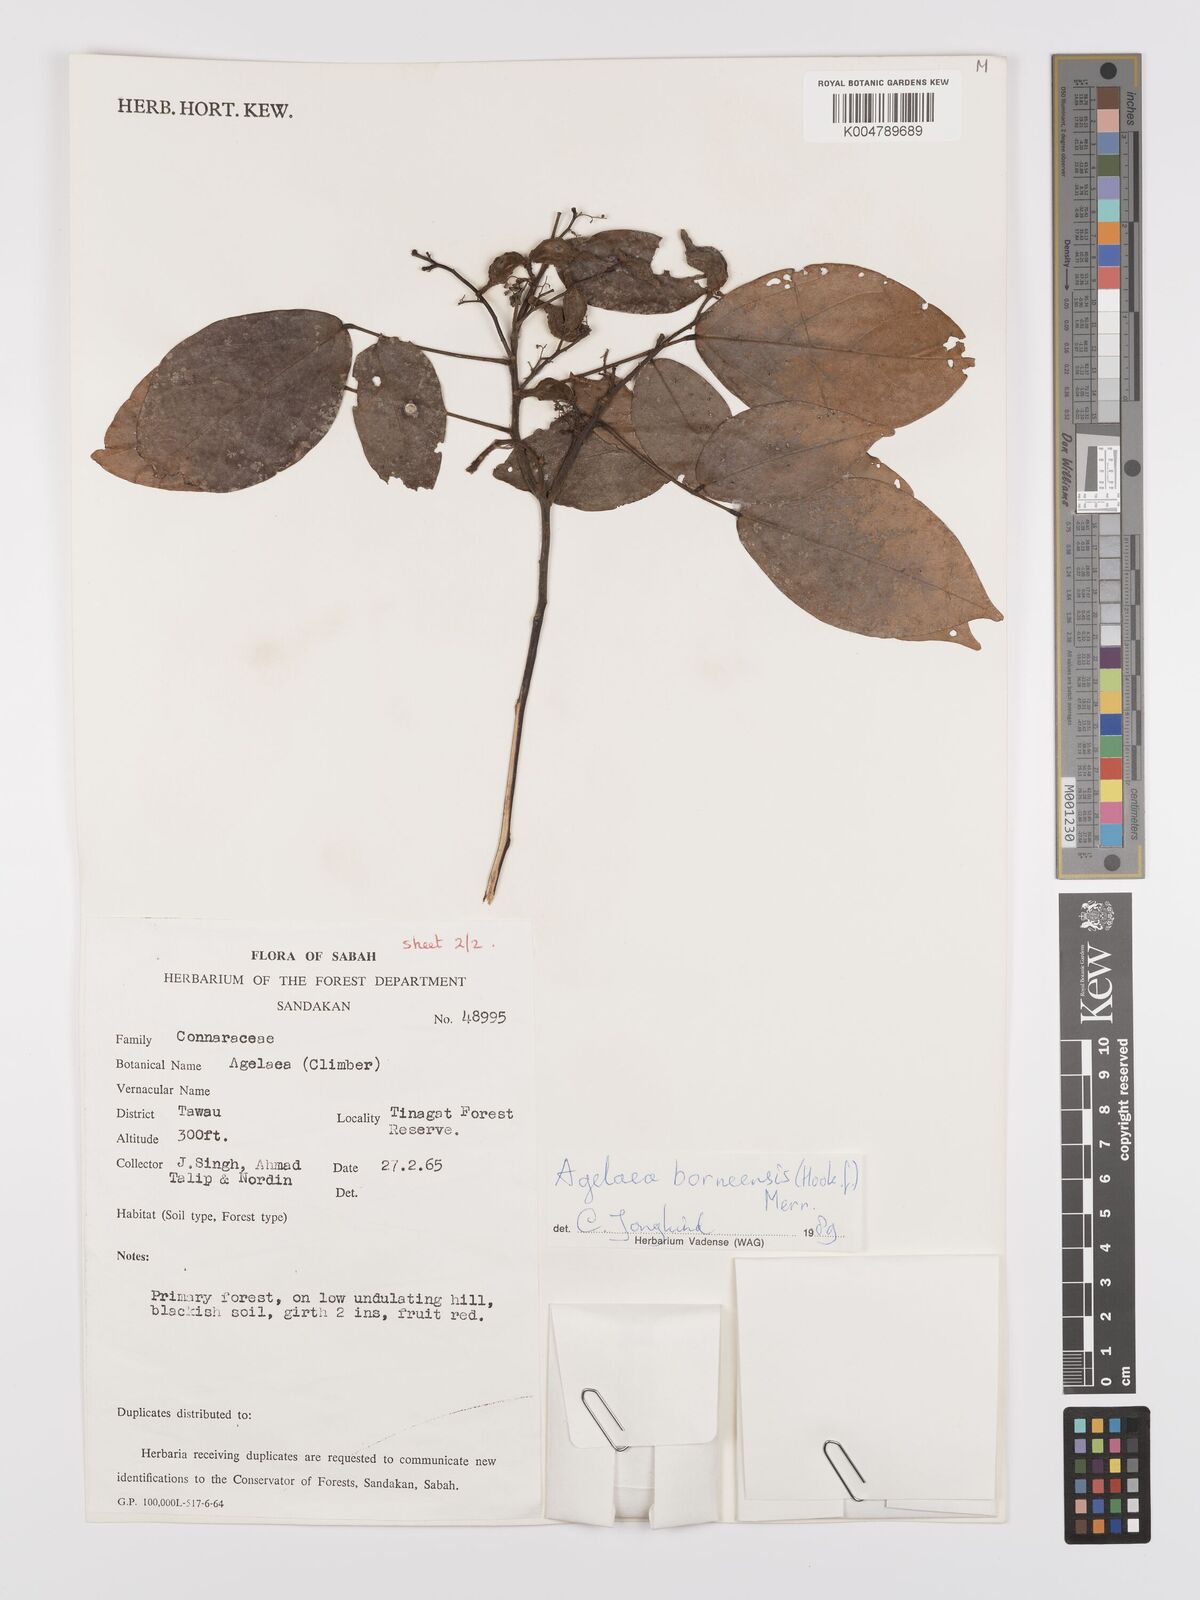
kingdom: Plantae
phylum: Tracheophyta
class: Magnoliopsida
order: Oxalidales
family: Connaraceae
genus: Agelaea
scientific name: Agelaea borneensis
